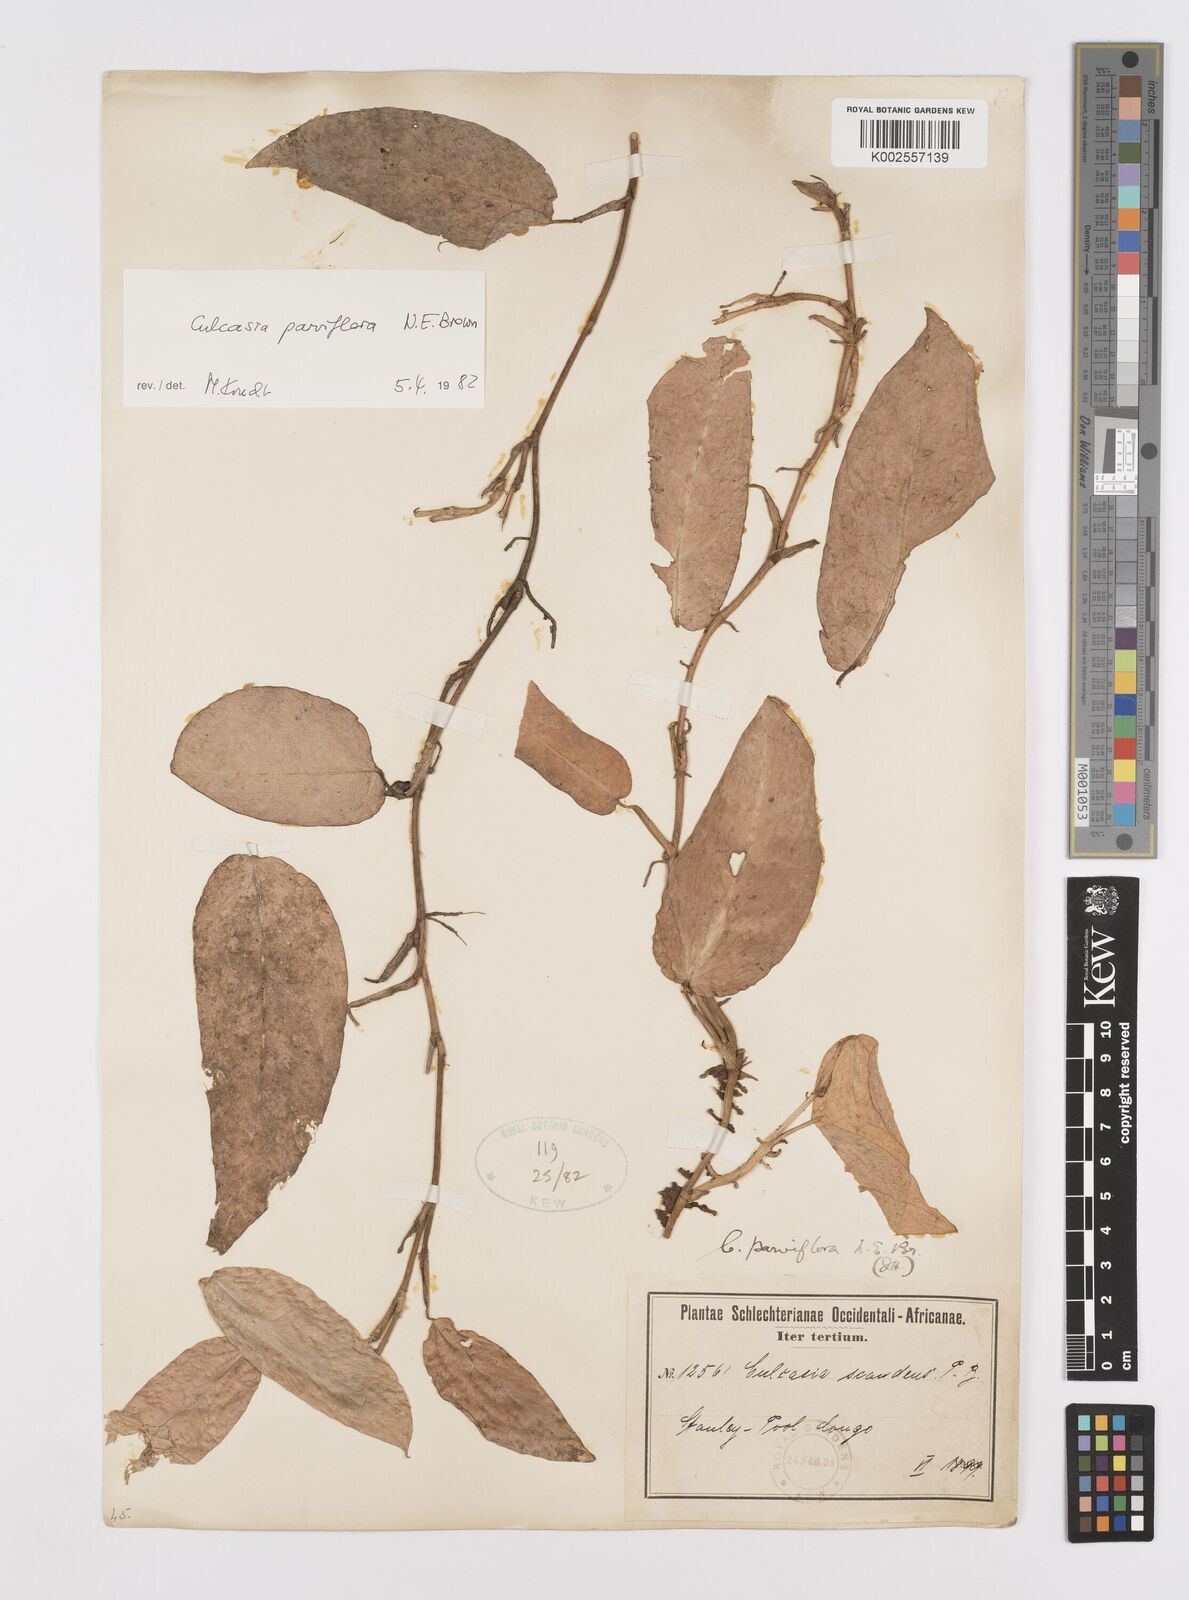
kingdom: Plantae
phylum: Tracheophyta
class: Liliopsida
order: Alismatales
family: Araceae
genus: Culcasia
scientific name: Culcasia parviflora
